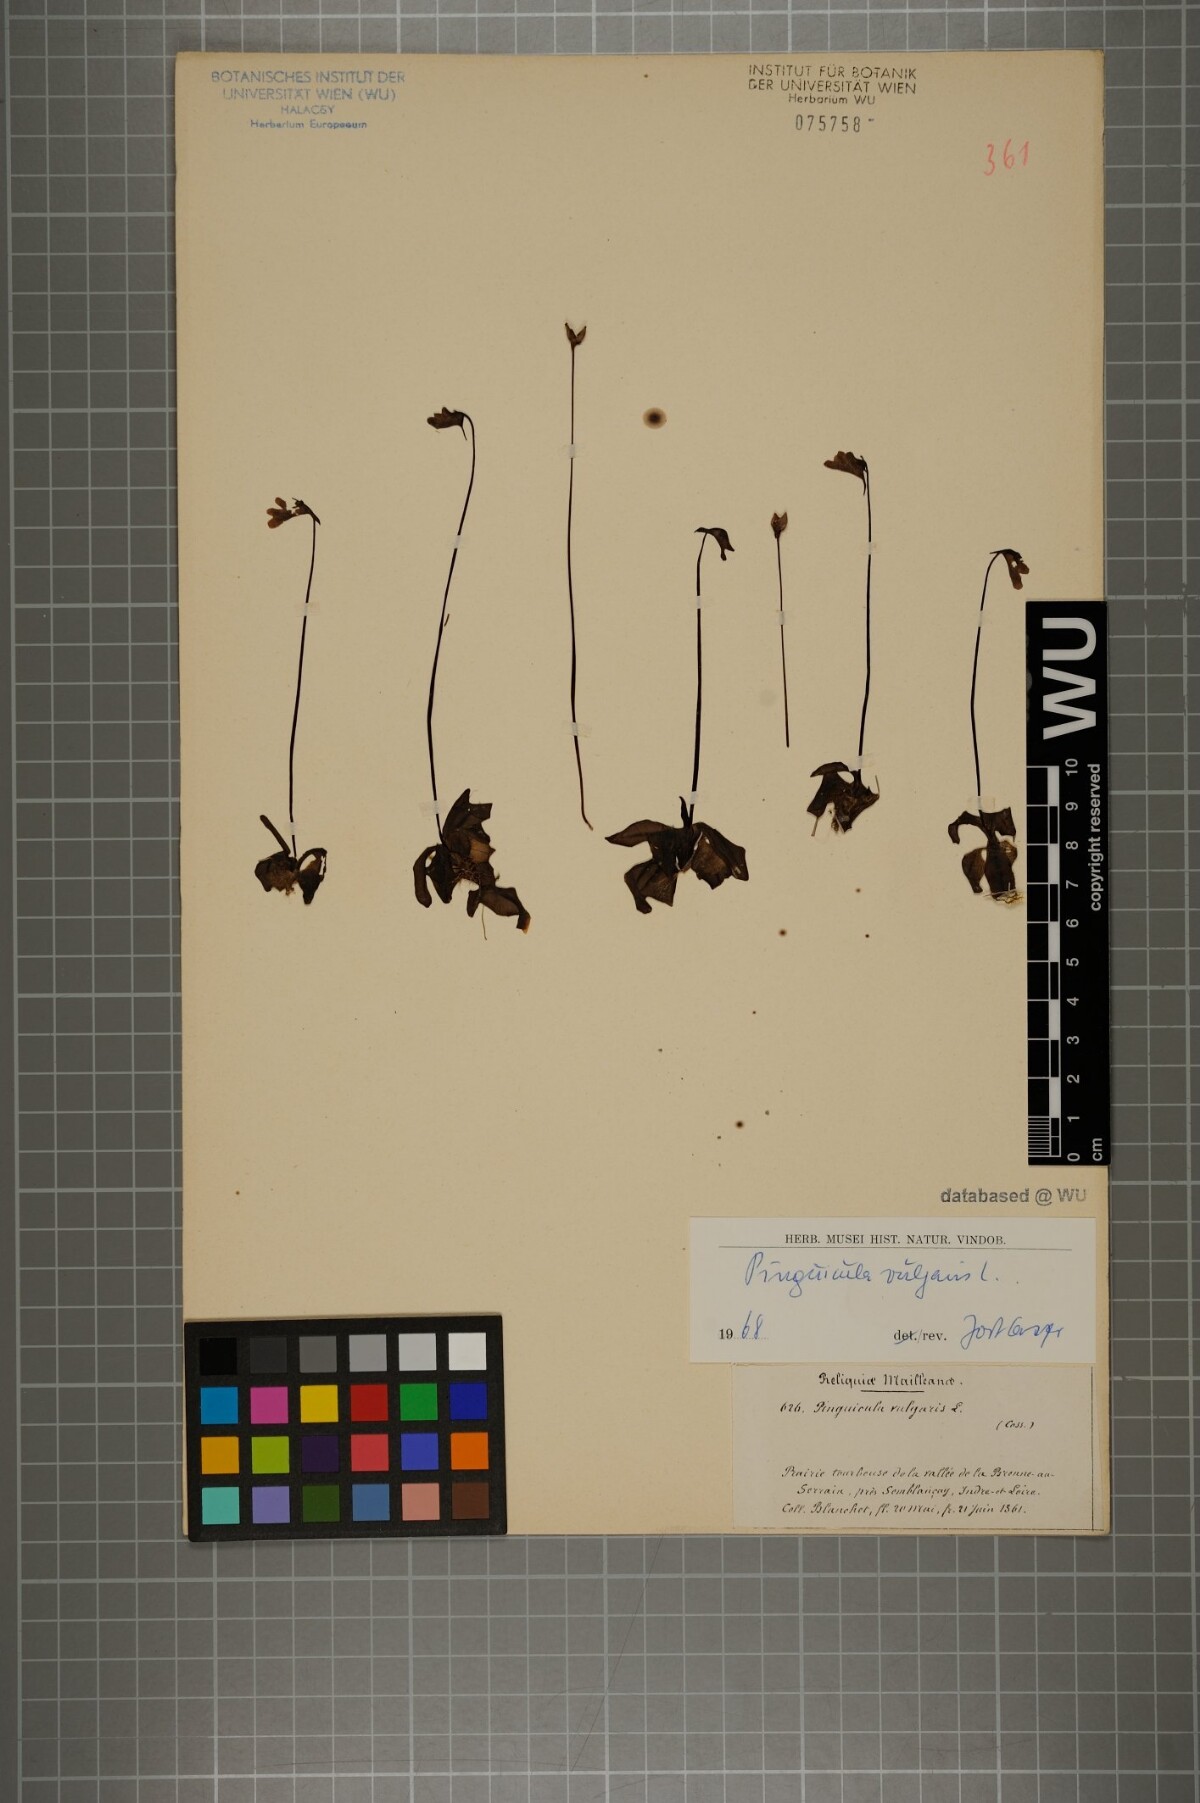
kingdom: Plantae
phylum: Tracheophyta
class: Magnoliopsida
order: Lamiales
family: Lentibulariaceae
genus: Pinguicula
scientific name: Pinguicula vulgaris
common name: Common butterwort
